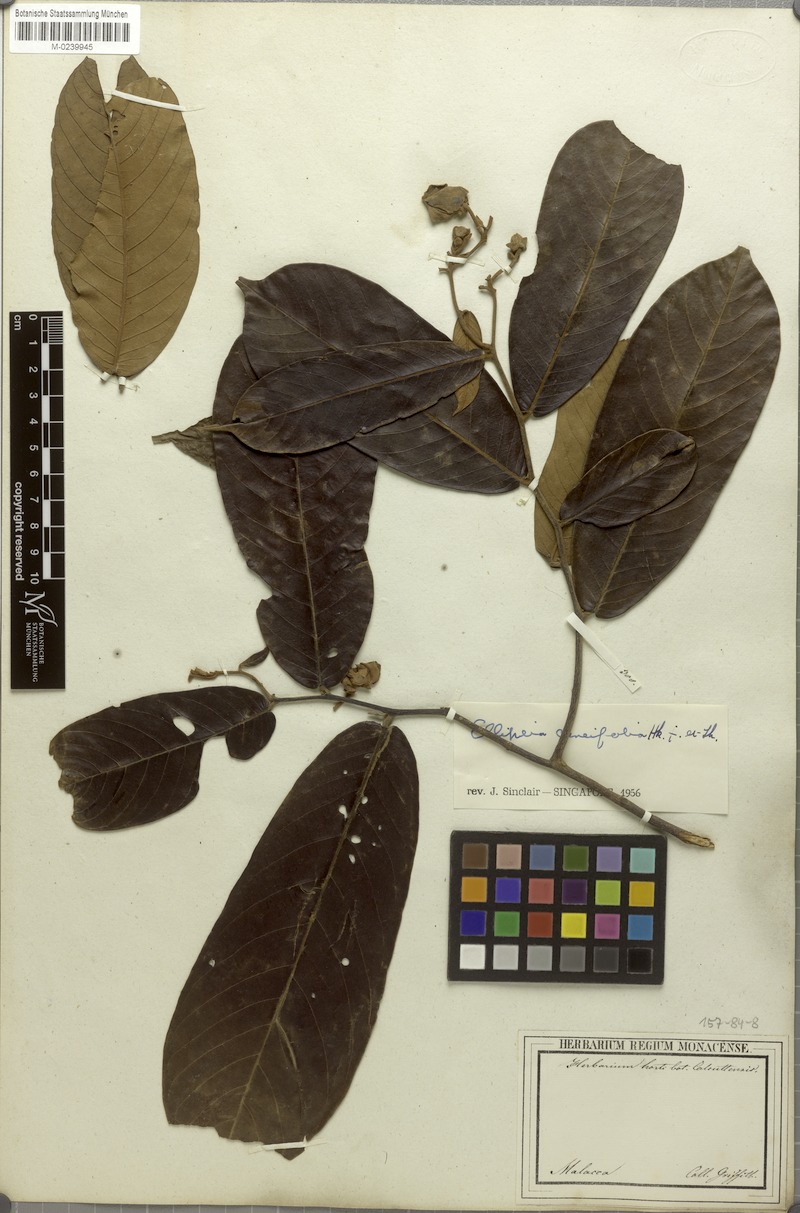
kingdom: Plantae
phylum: Tracheophyta
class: Magnoliopsida
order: Magnoliales
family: Annonaceae
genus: Uvaria
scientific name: Uvaria cuneifolia
